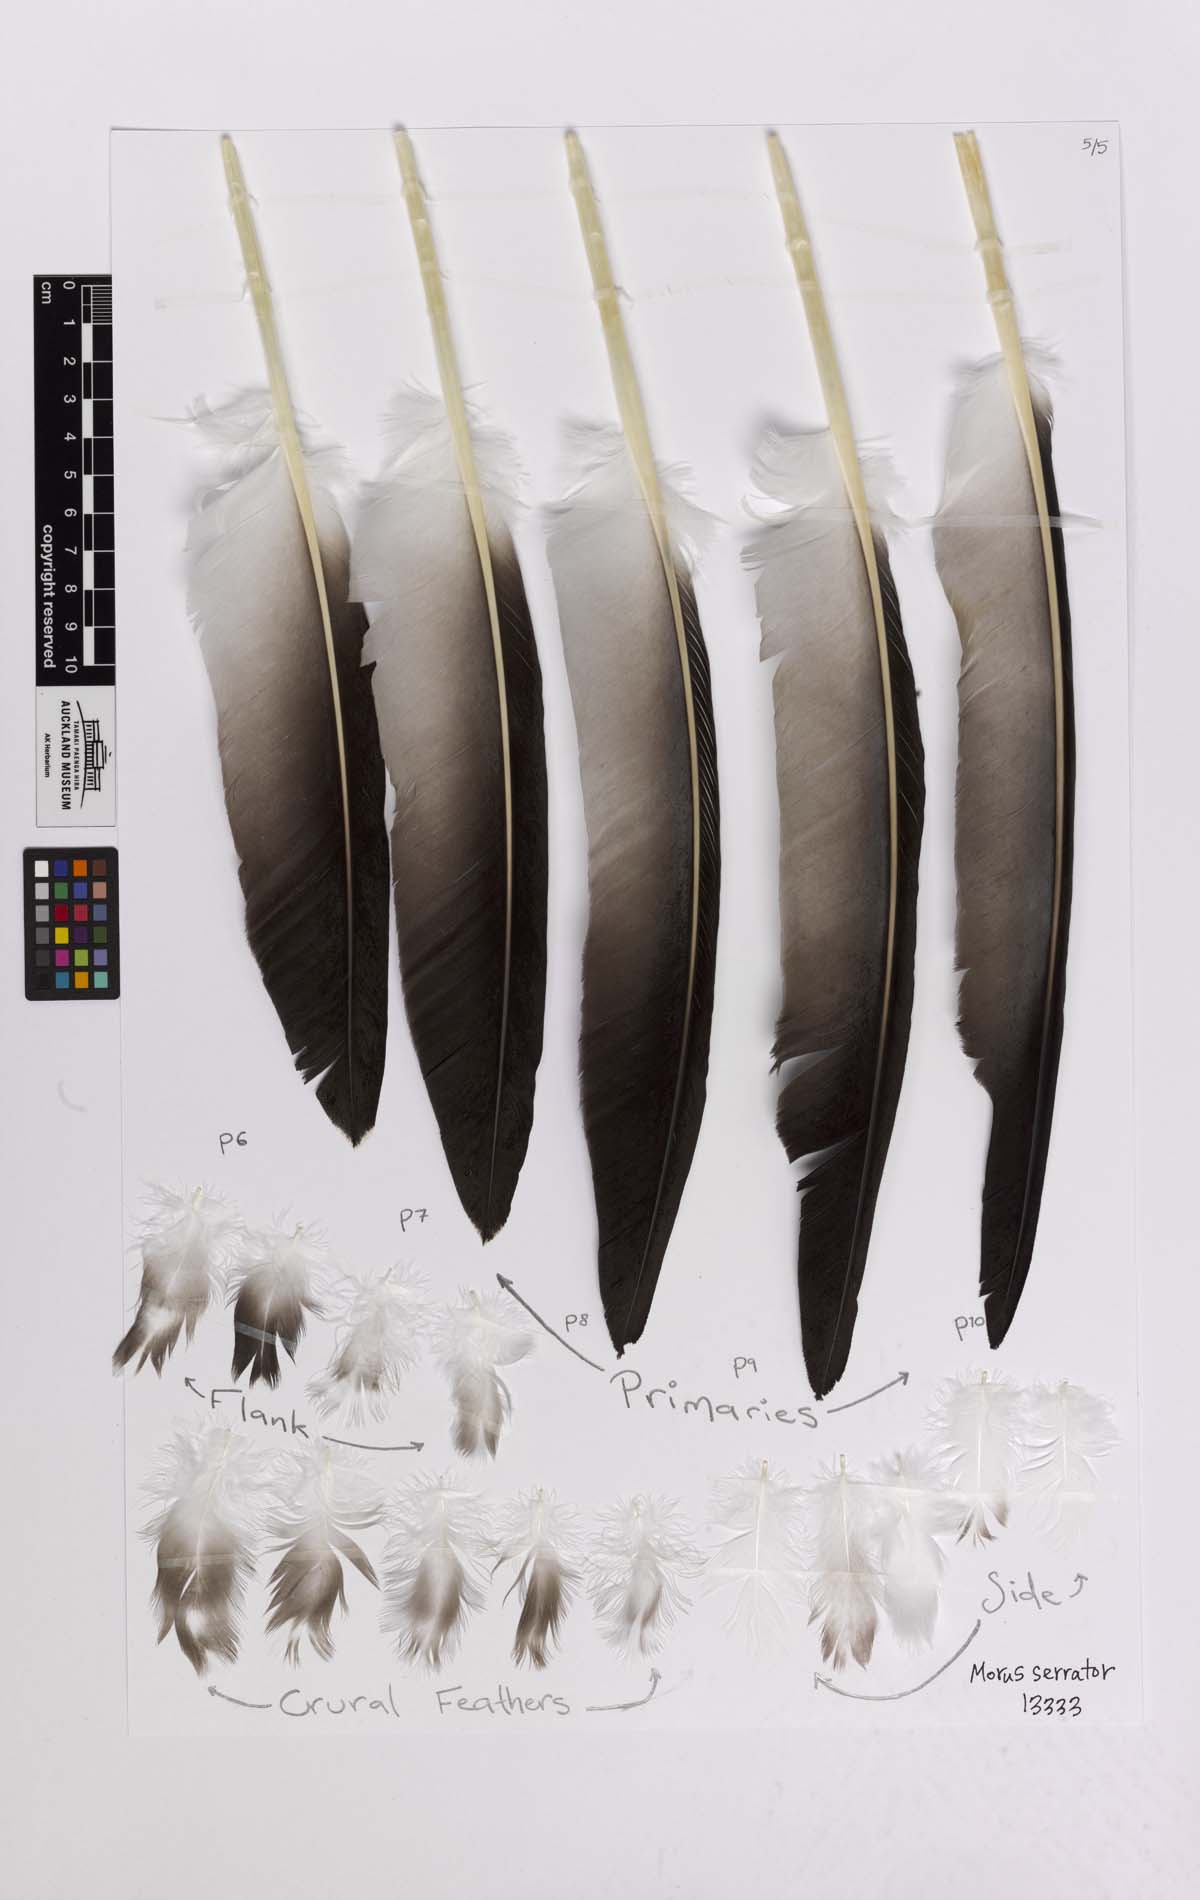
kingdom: Animalia
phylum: Chordata
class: Aves
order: Suliformes
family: Sulidae
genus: Morus
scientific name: Morus serrator
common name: Australasian gannet
